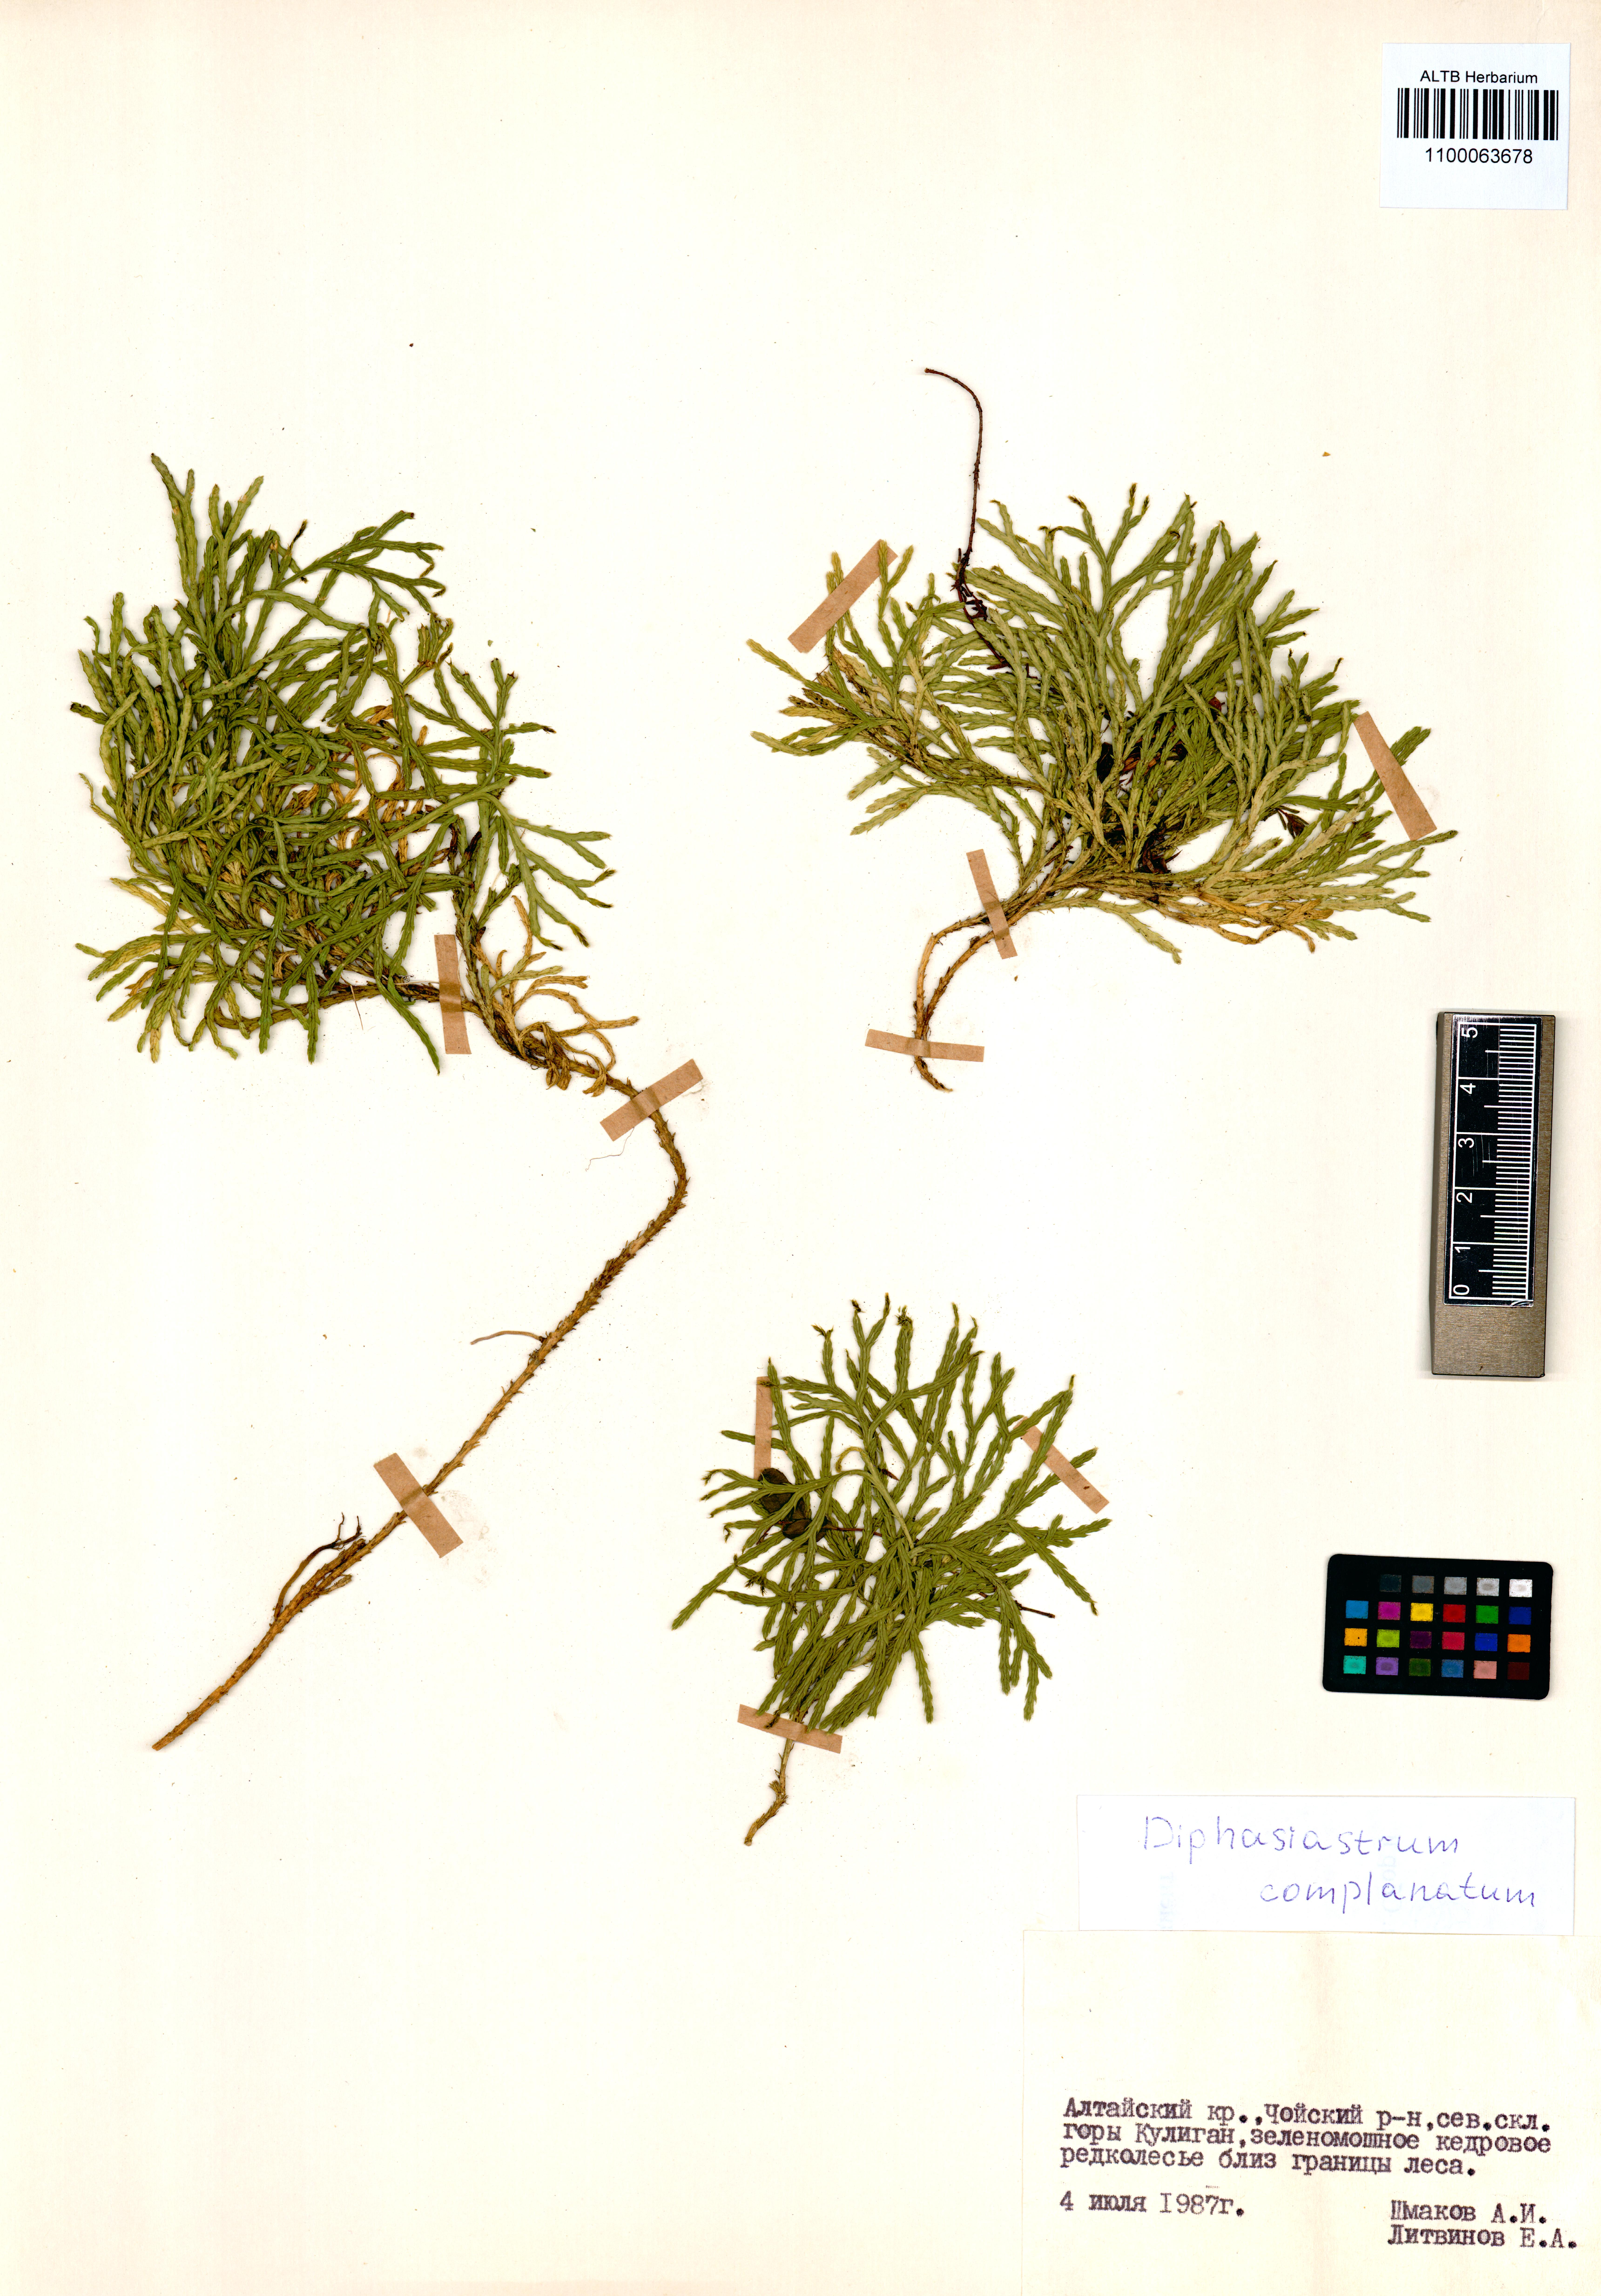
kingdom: Plantae
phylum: Tracheophyta
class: Lycopodiopsida
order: Lycopodiales
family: Lycopodiaceae
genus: Diphasiastrum
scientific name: Diphasiastrum complanatum
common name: Northern running-pine
